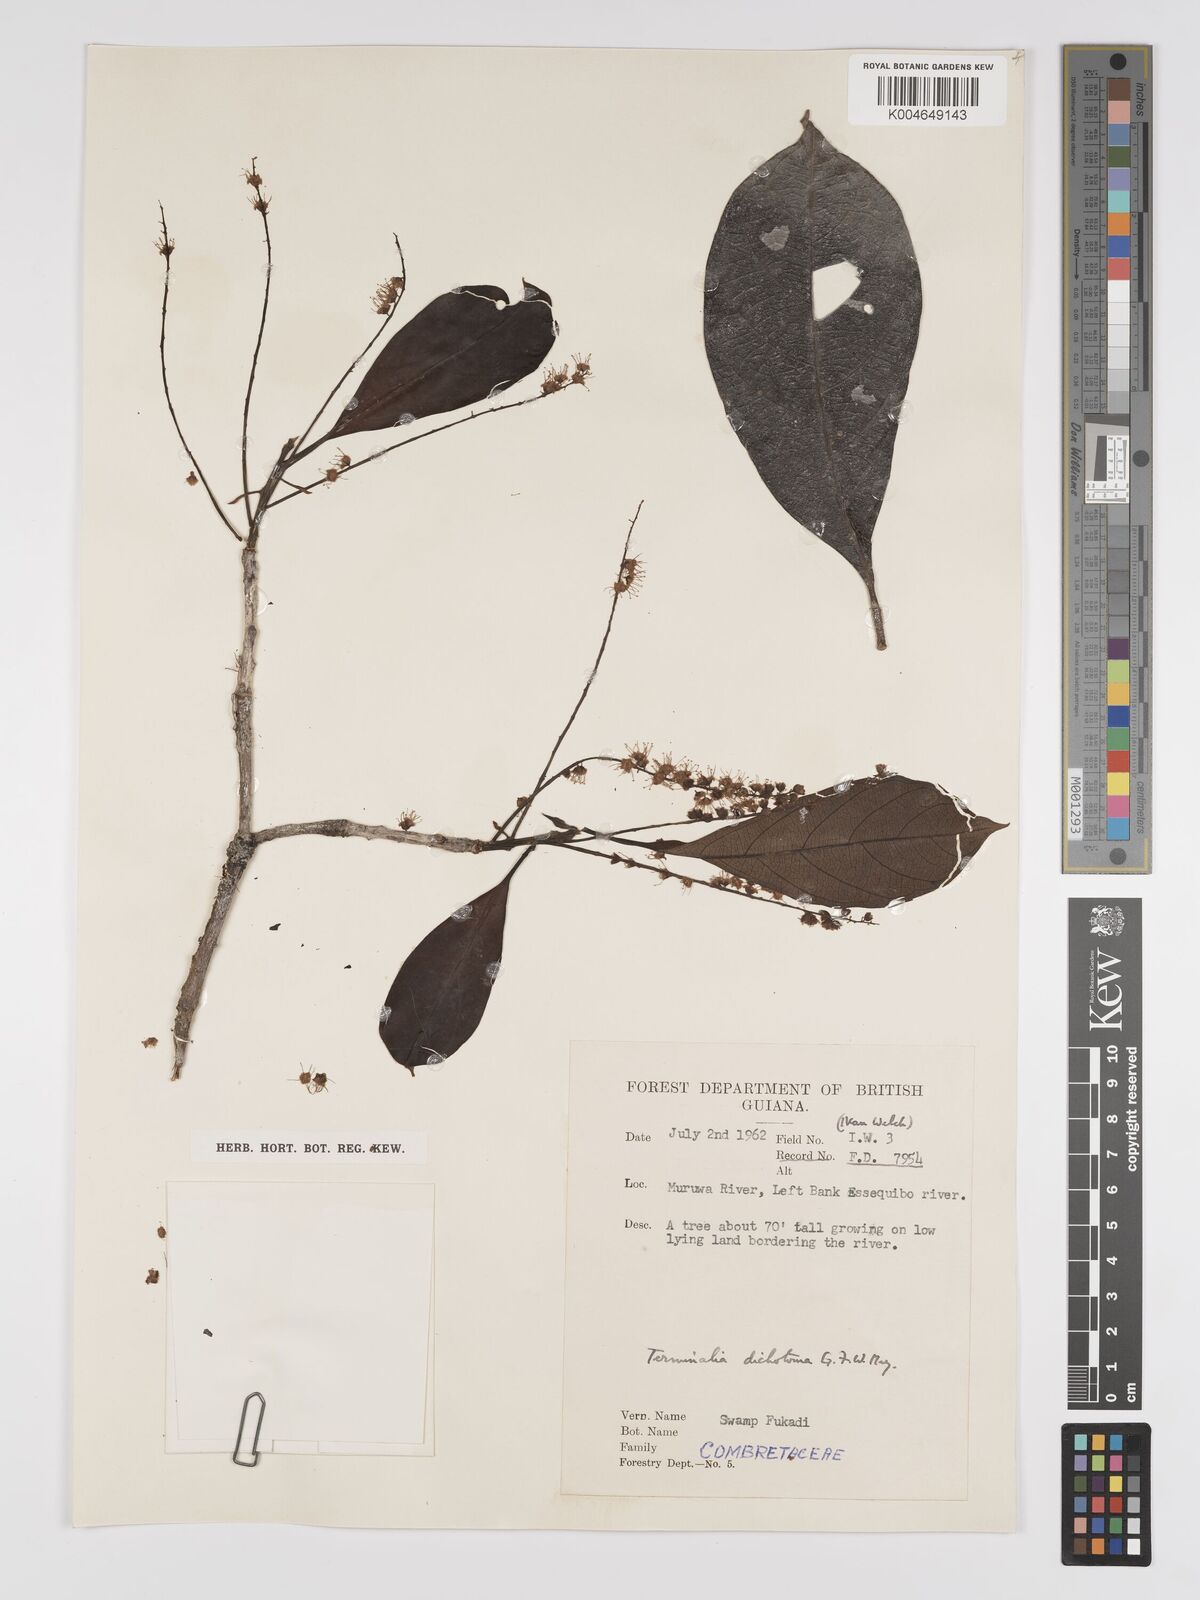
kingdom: Plantae
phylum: Tracheophyta
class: Magnoliopsida
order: Myrtales
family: Combretaceae
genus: Terminalia
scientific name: Terminalia dichotoma
